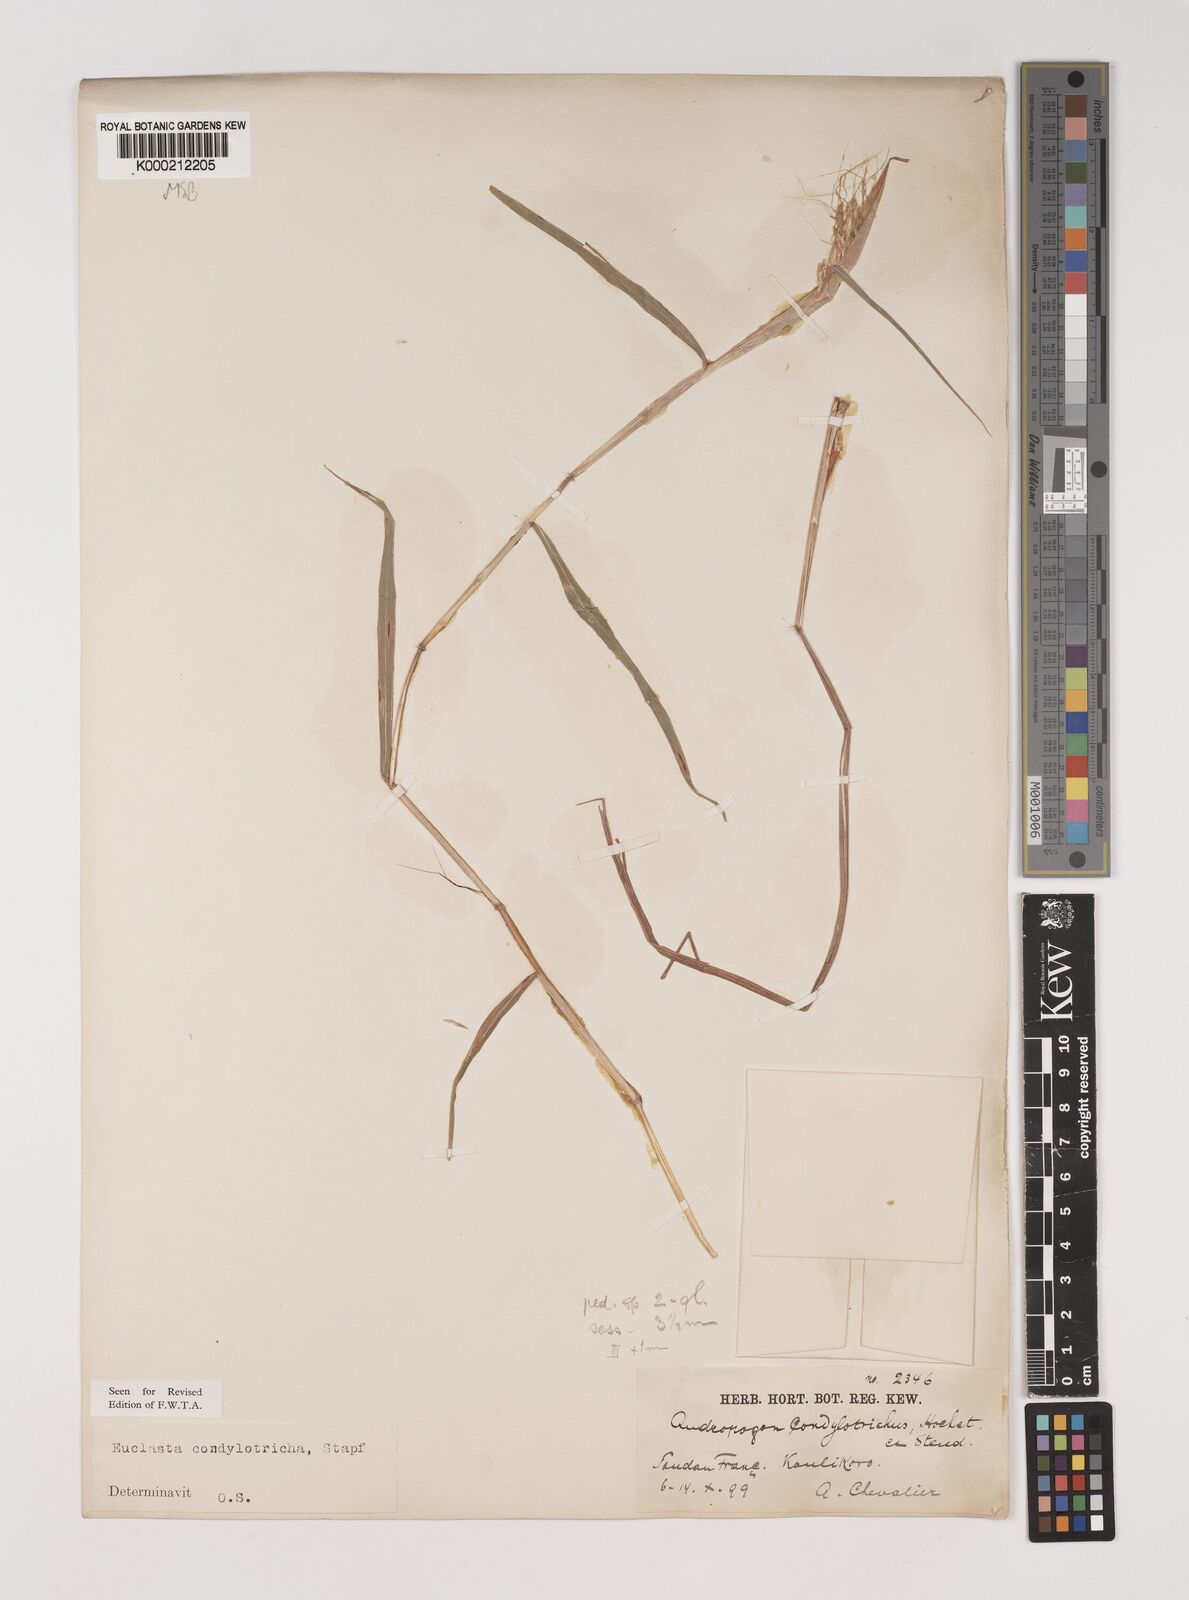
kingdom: Plantae
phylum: Tracheophyta
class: Liliopsida
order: Poales
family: Poaceae
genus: Euclasta
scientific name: Euclasta condylotricha
